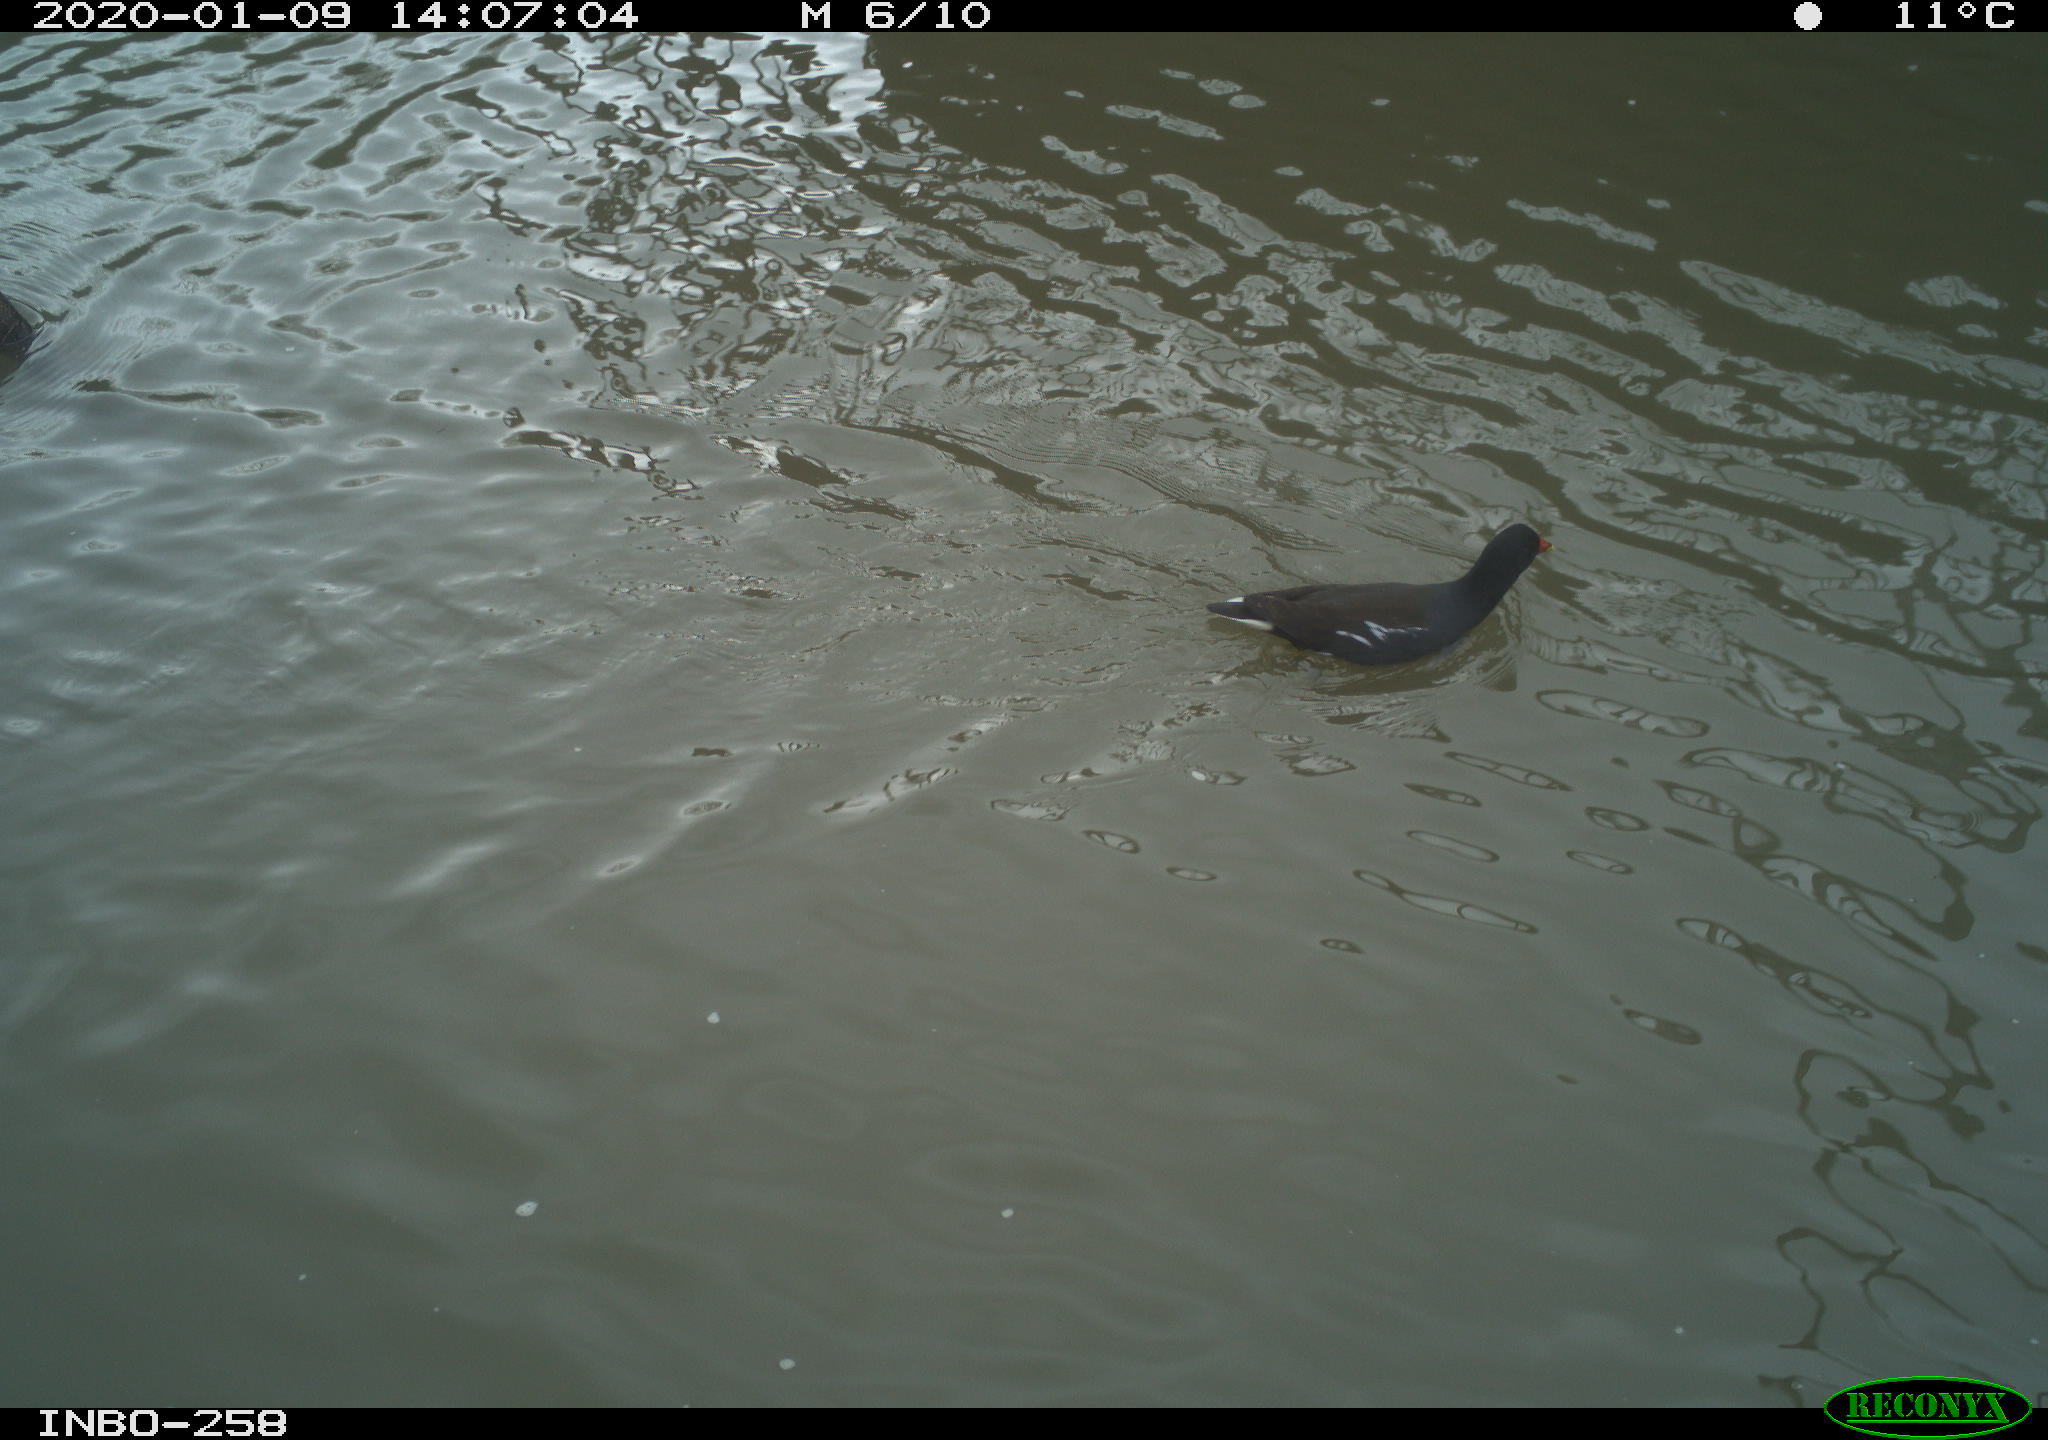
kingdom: Animalia
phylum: Chordata
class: Aves
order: Gruiformes
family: Rallidae
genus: Gallinula
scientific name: Gallinula chloropus
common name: Common moorhen
